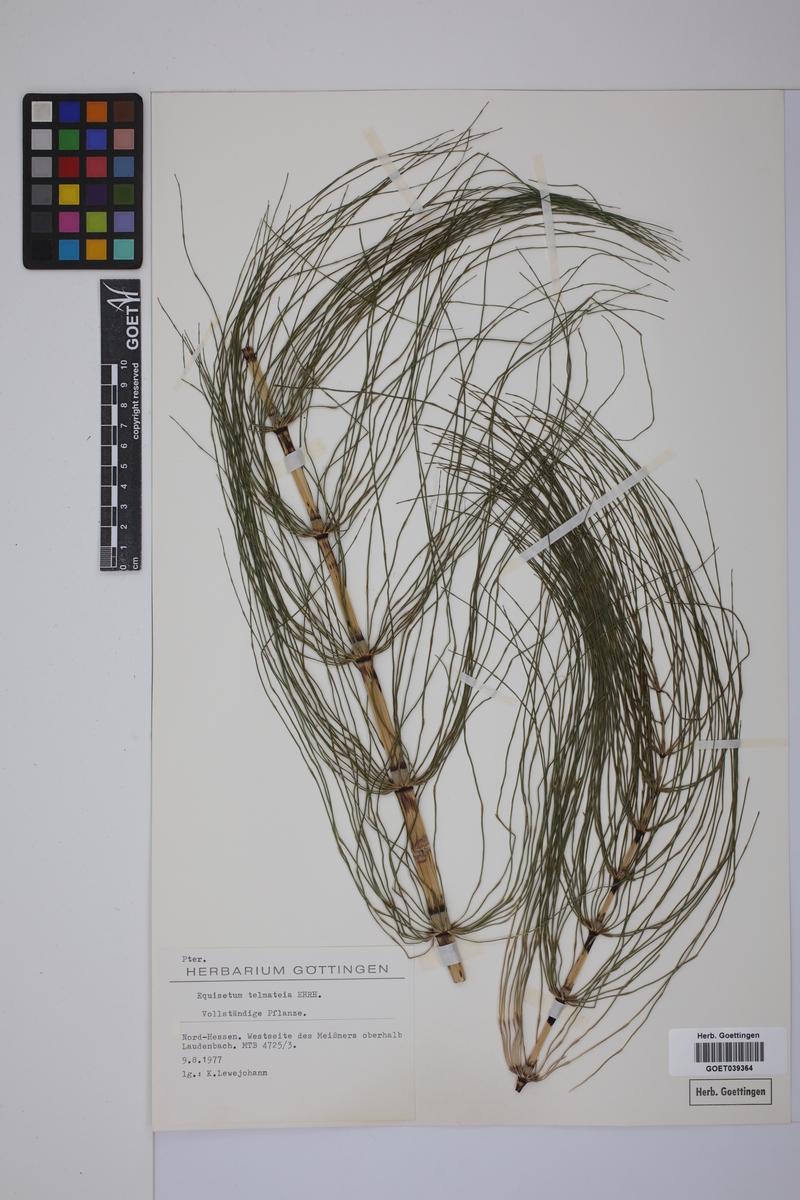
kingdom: Plantae
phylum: Tracheophyta
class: Polypodiopsida
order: Equisetales
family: Equisetaceae
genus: Equisetum
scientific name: Equisetum telmateia
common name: Great horsetail
